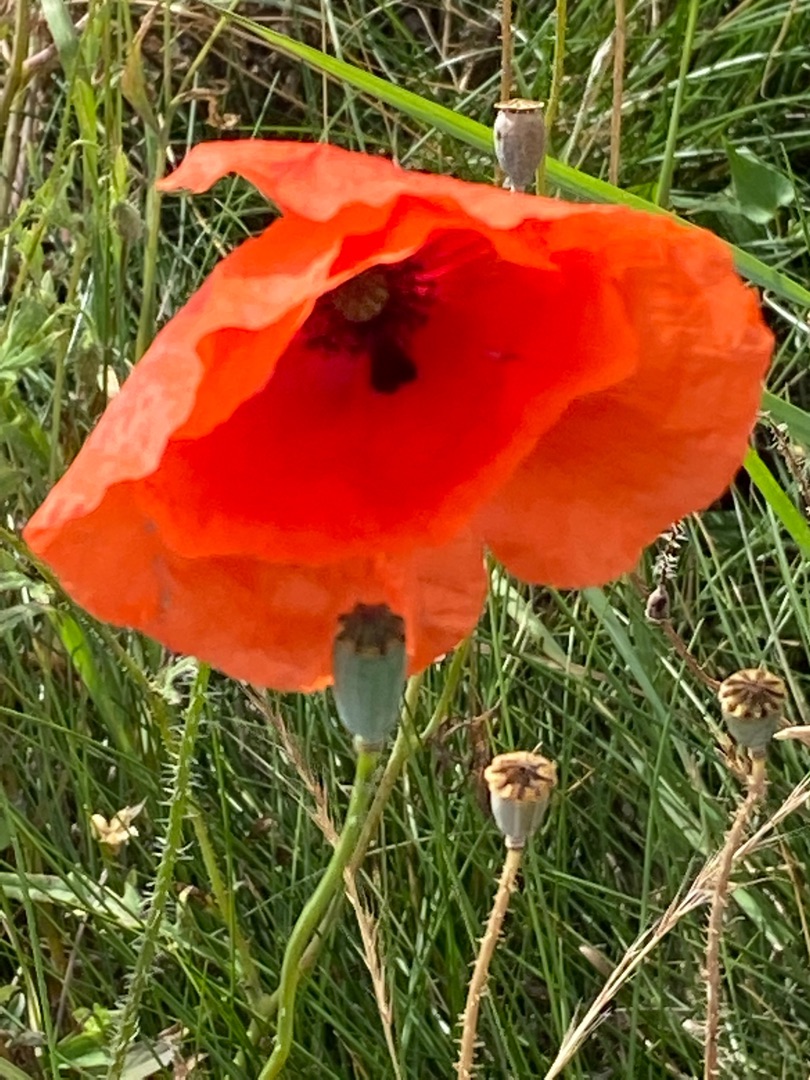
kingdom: Plantae
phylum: Tracheophyta
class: Magnoliopsida
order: Ranunculales
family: Papaveraceae
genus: Papaver
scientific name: Papaver rhoeas
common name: Korn-valmue
